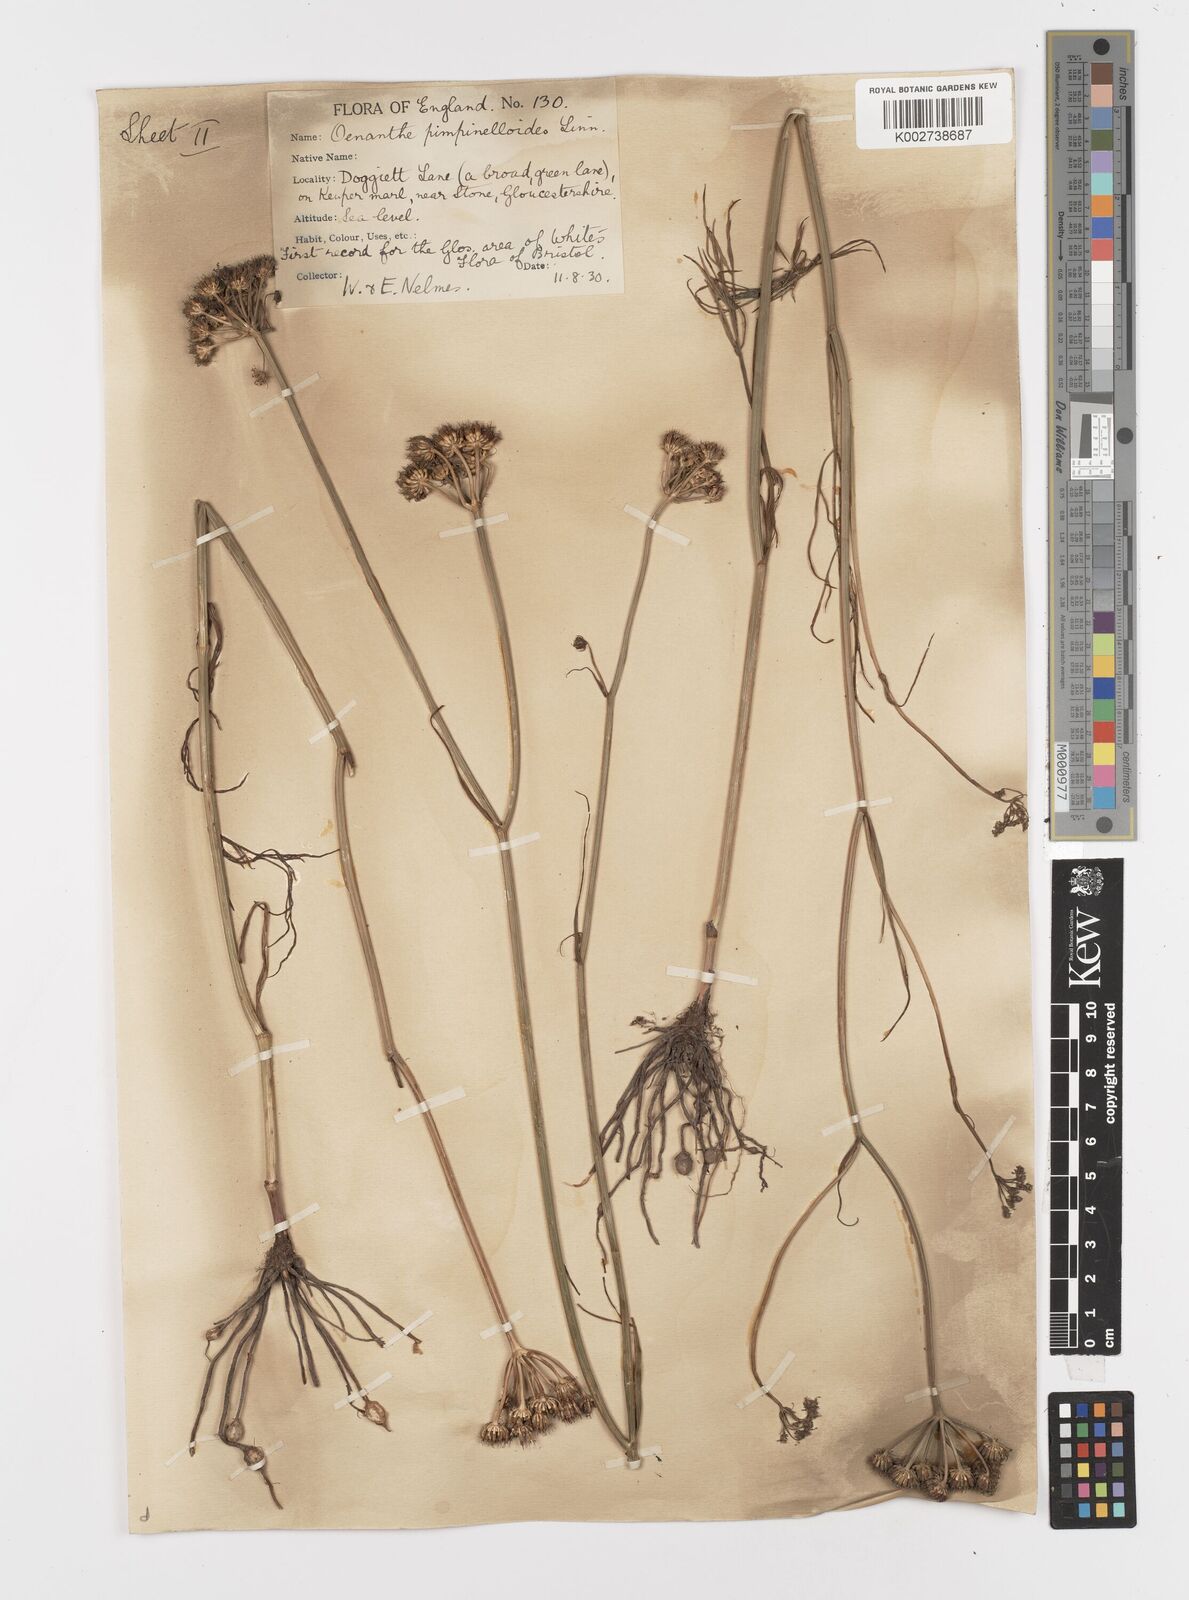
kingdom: Plantae
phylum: Tracheophyta
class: Magnoliopsida
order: Apiales
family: Apiaceae
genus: Oenanthe
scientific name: Oenanthe pimpinelloides
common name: Corky-fruited water-dropwort
